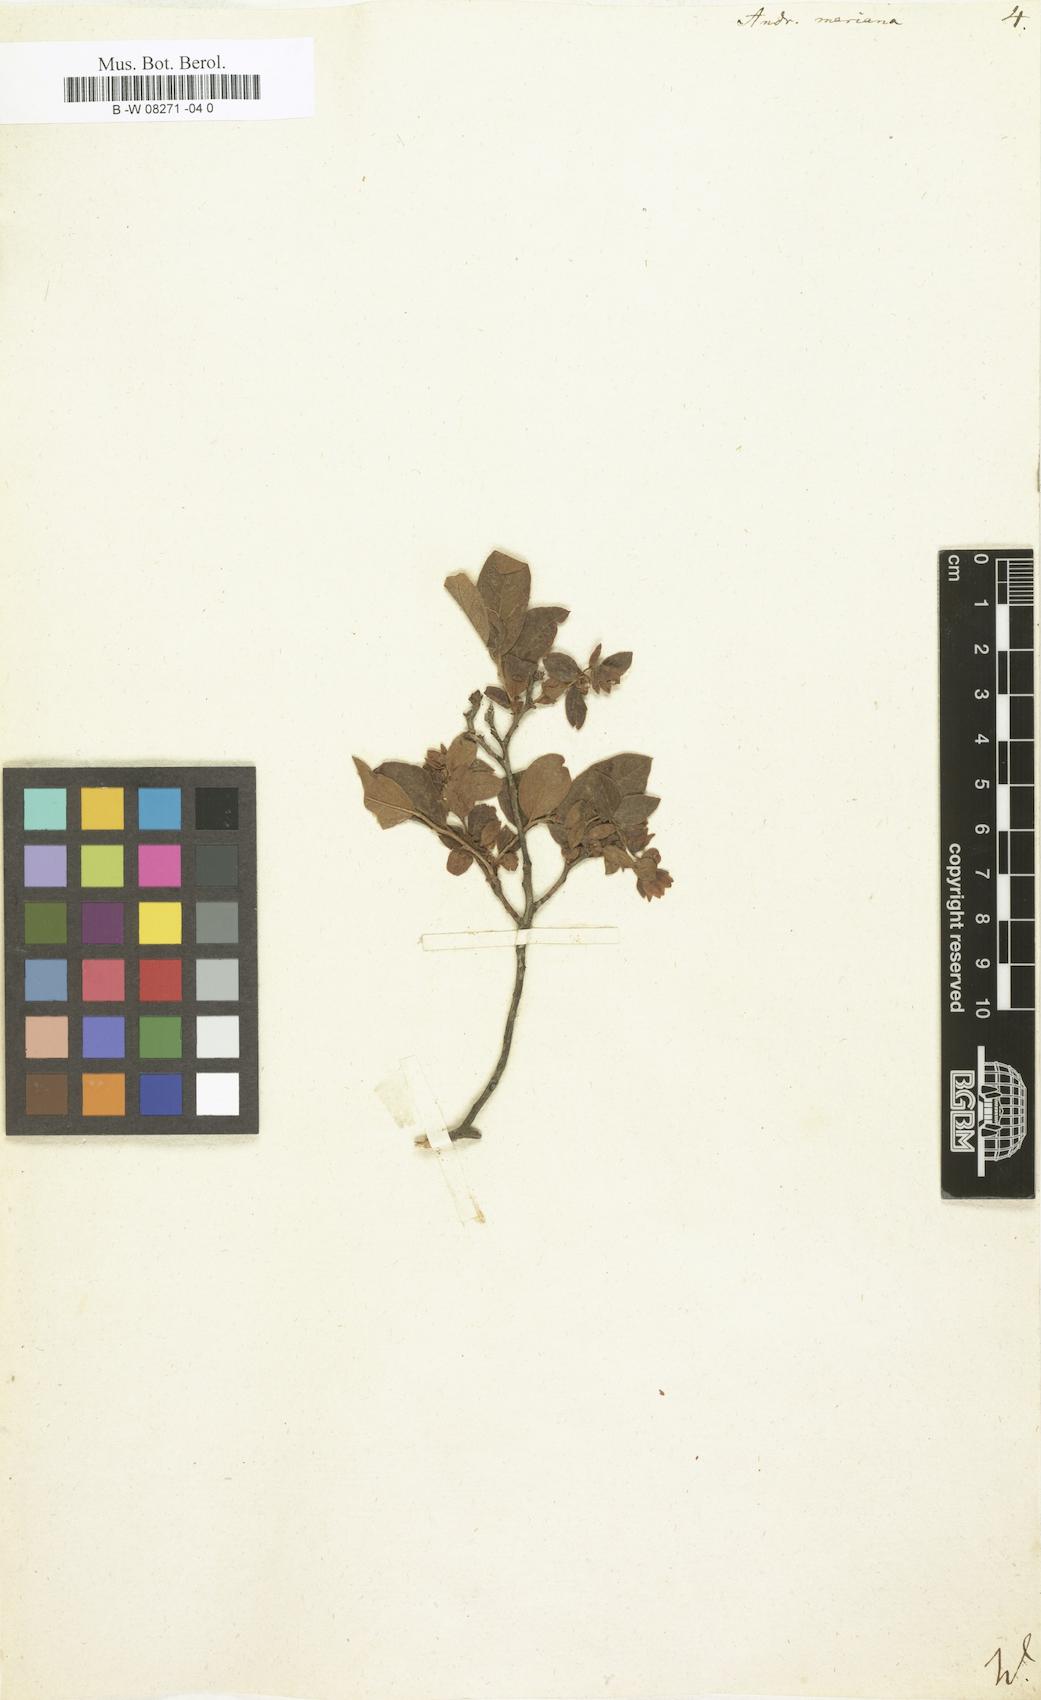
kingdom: Plantae
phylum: Tracheophyta
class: Magnoliopsida
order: Ericales
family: Ericaceae
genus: Lyonia
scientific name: Lyonia mariana
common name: Staggerbush
